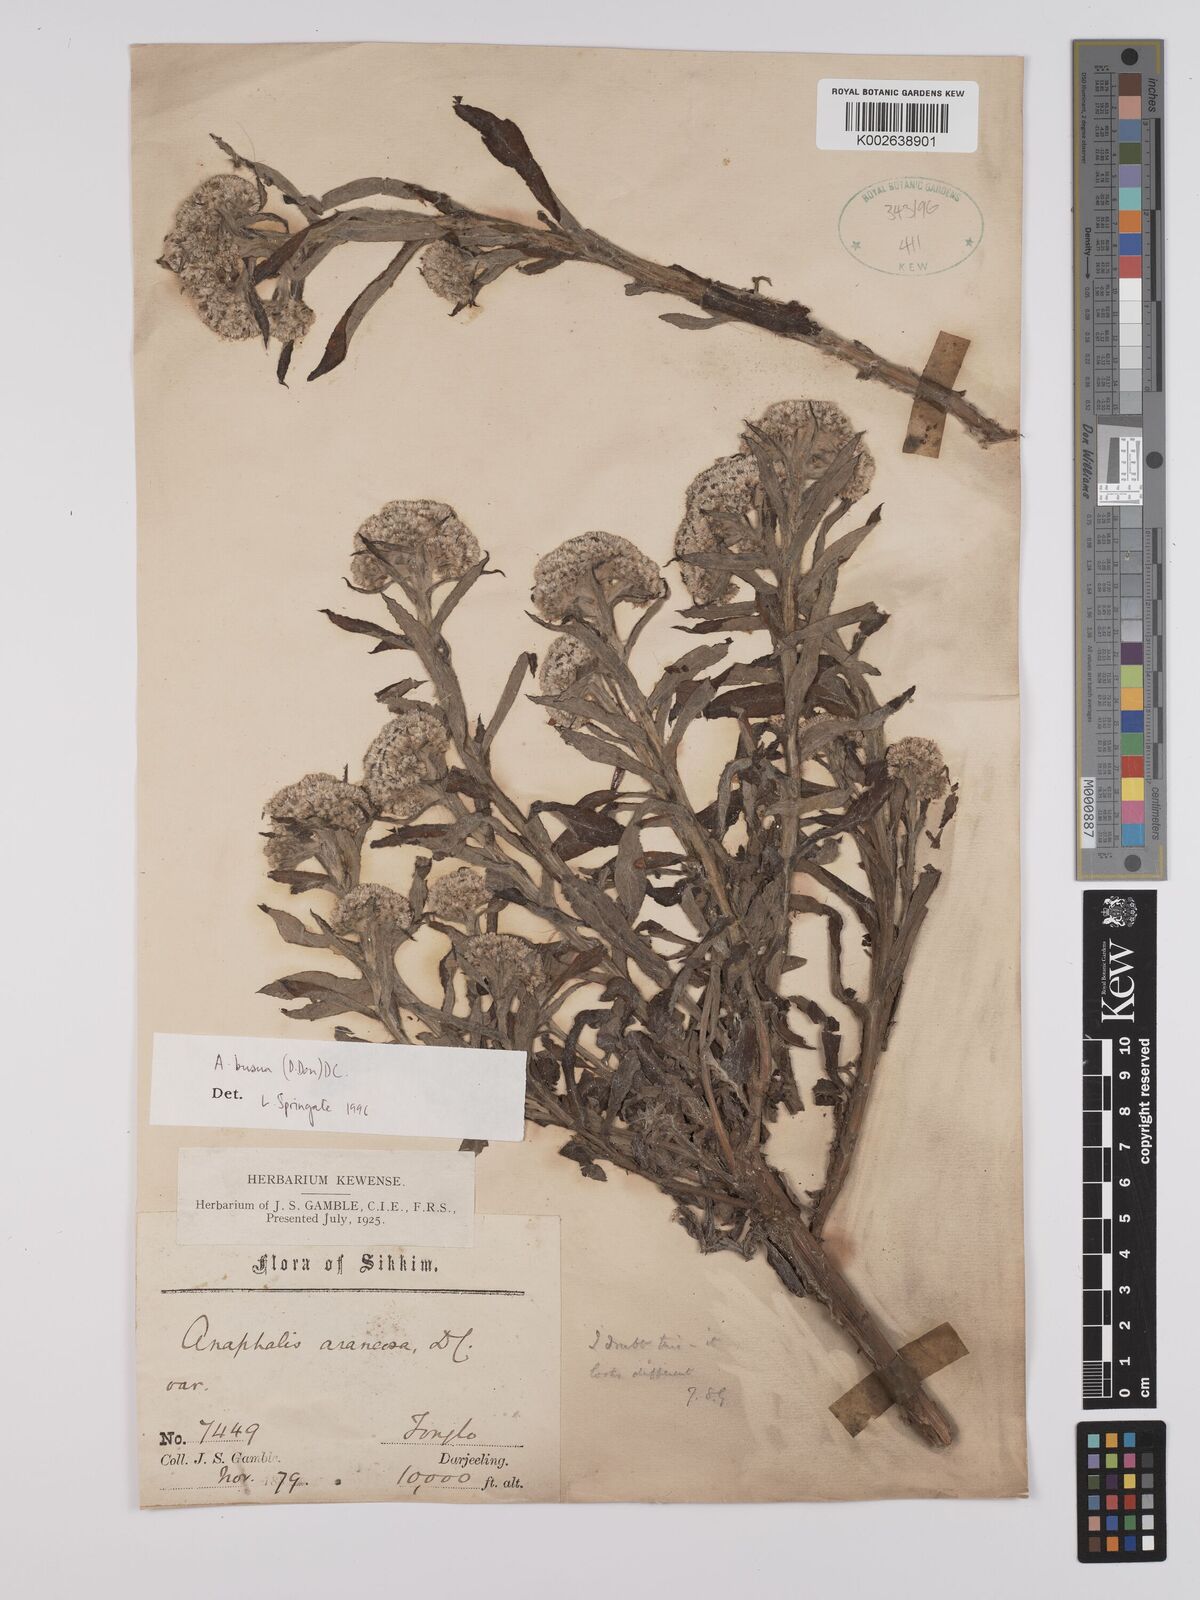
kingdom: Plantae
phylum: Tracheophyta
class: Magnoliopsida
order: Asterales
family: Asteraceae
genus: Anaphalis
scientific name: Anaphalis busua
